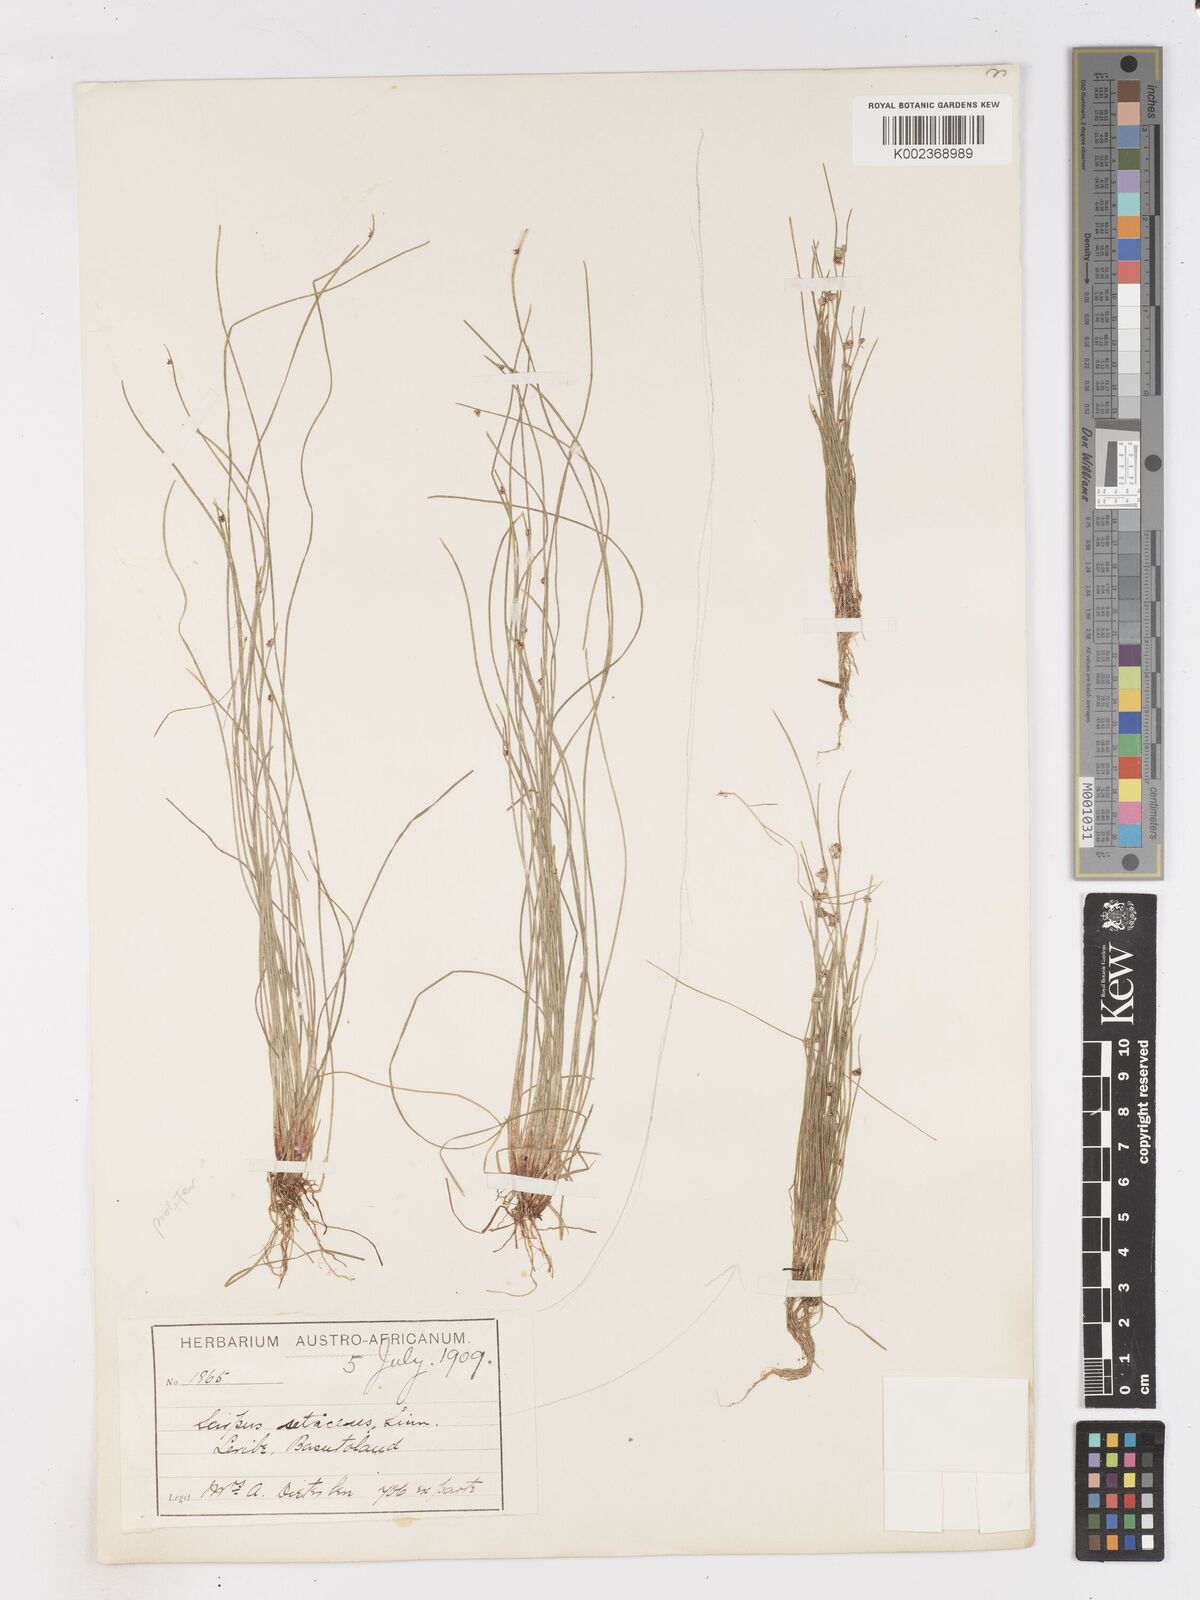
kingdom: Plantae
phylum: Tracheophyta
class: Liliopsida
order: Poales
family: Cyperaceae
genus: Isolepis
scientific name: Isolepis setacea
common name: Bristle club-rush
